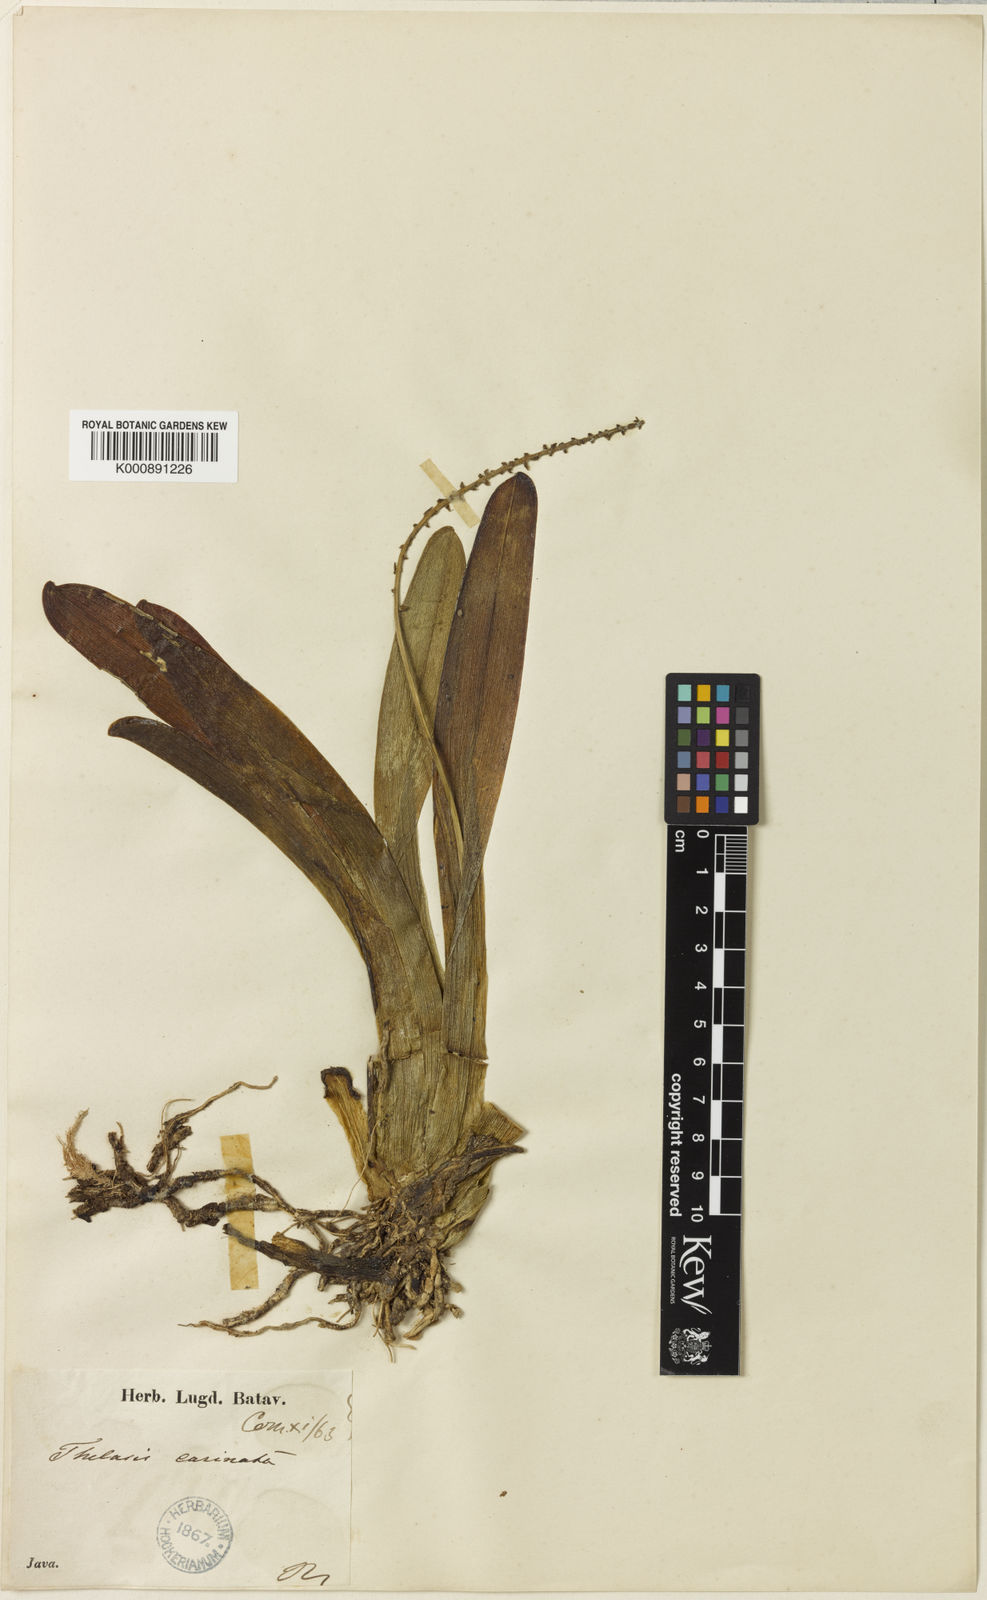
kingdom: Plantae
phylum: Tracheophyta
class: Liliopsida
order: Asparagales
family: Orchidaceae
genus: Thelasis
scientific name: Thelasis carinata
